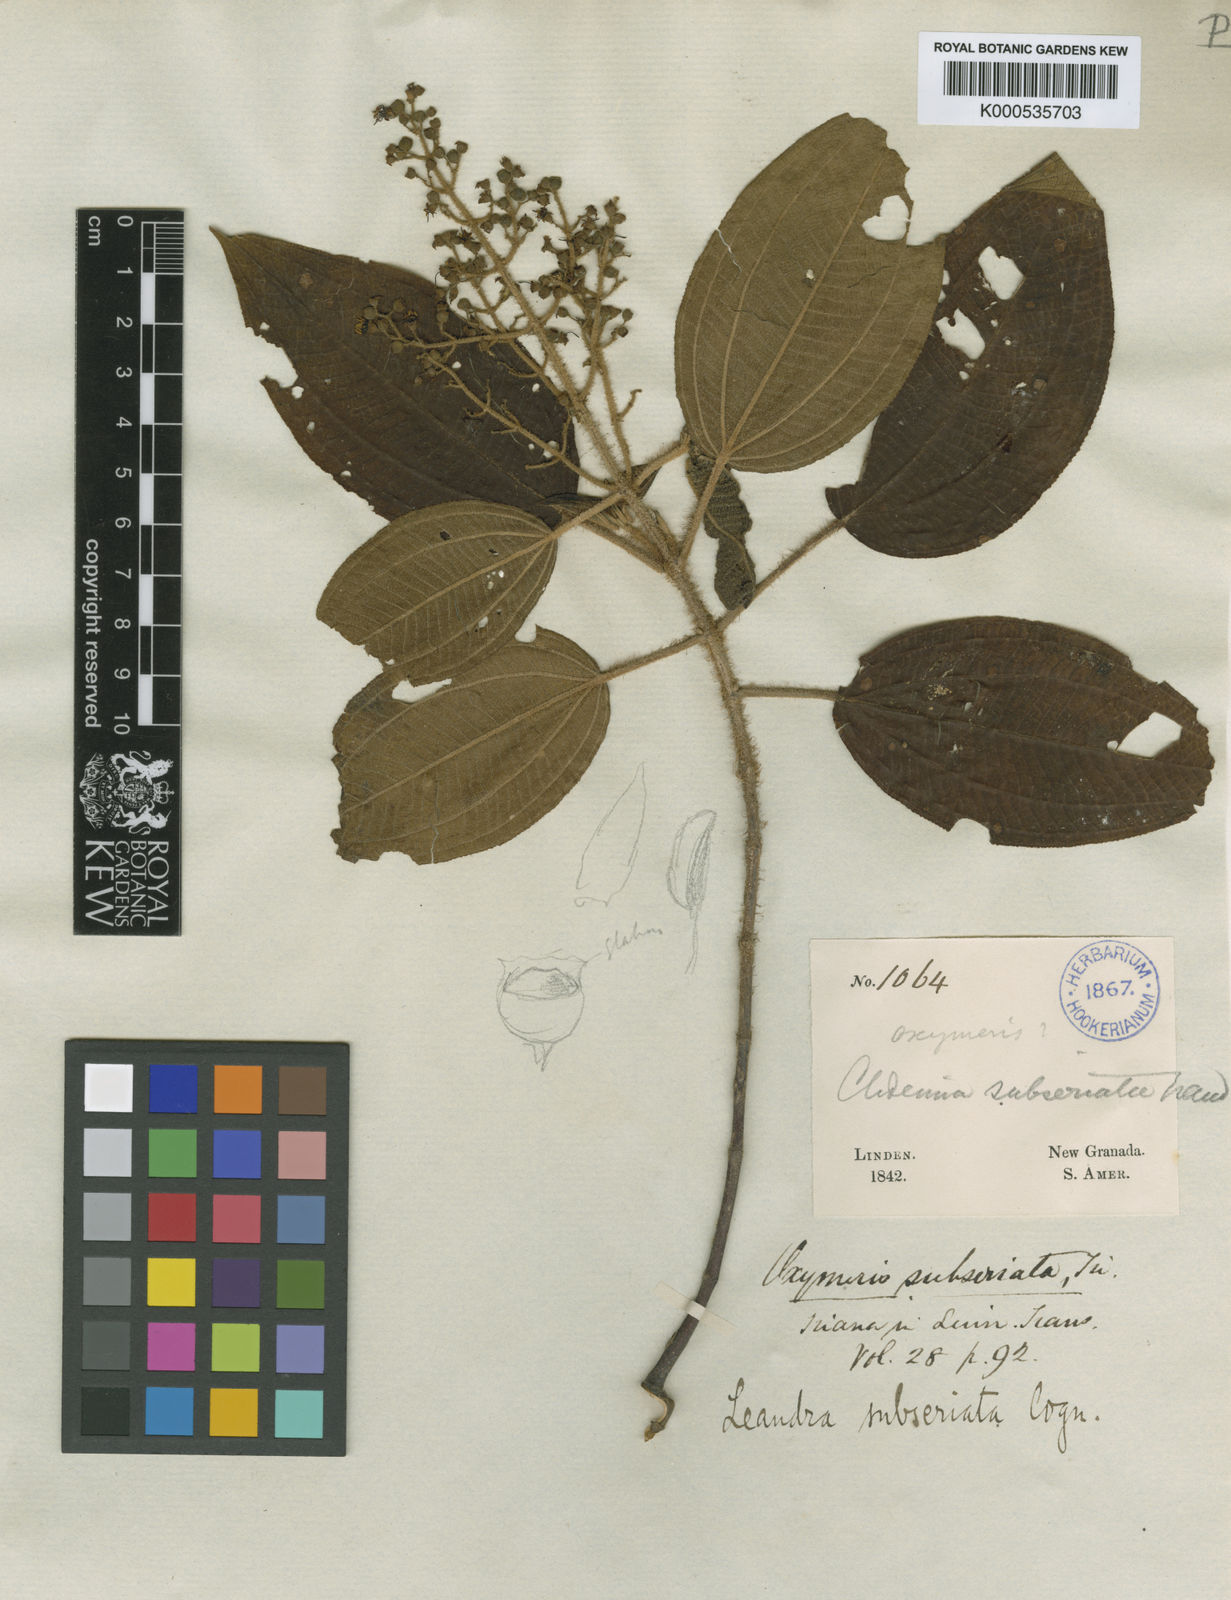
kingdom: Plantae
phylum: Tracheophyta
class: Magnoliopsida
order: Myrtales
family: Melastomataceae
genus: Miconia
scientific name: Miconia subseriata
